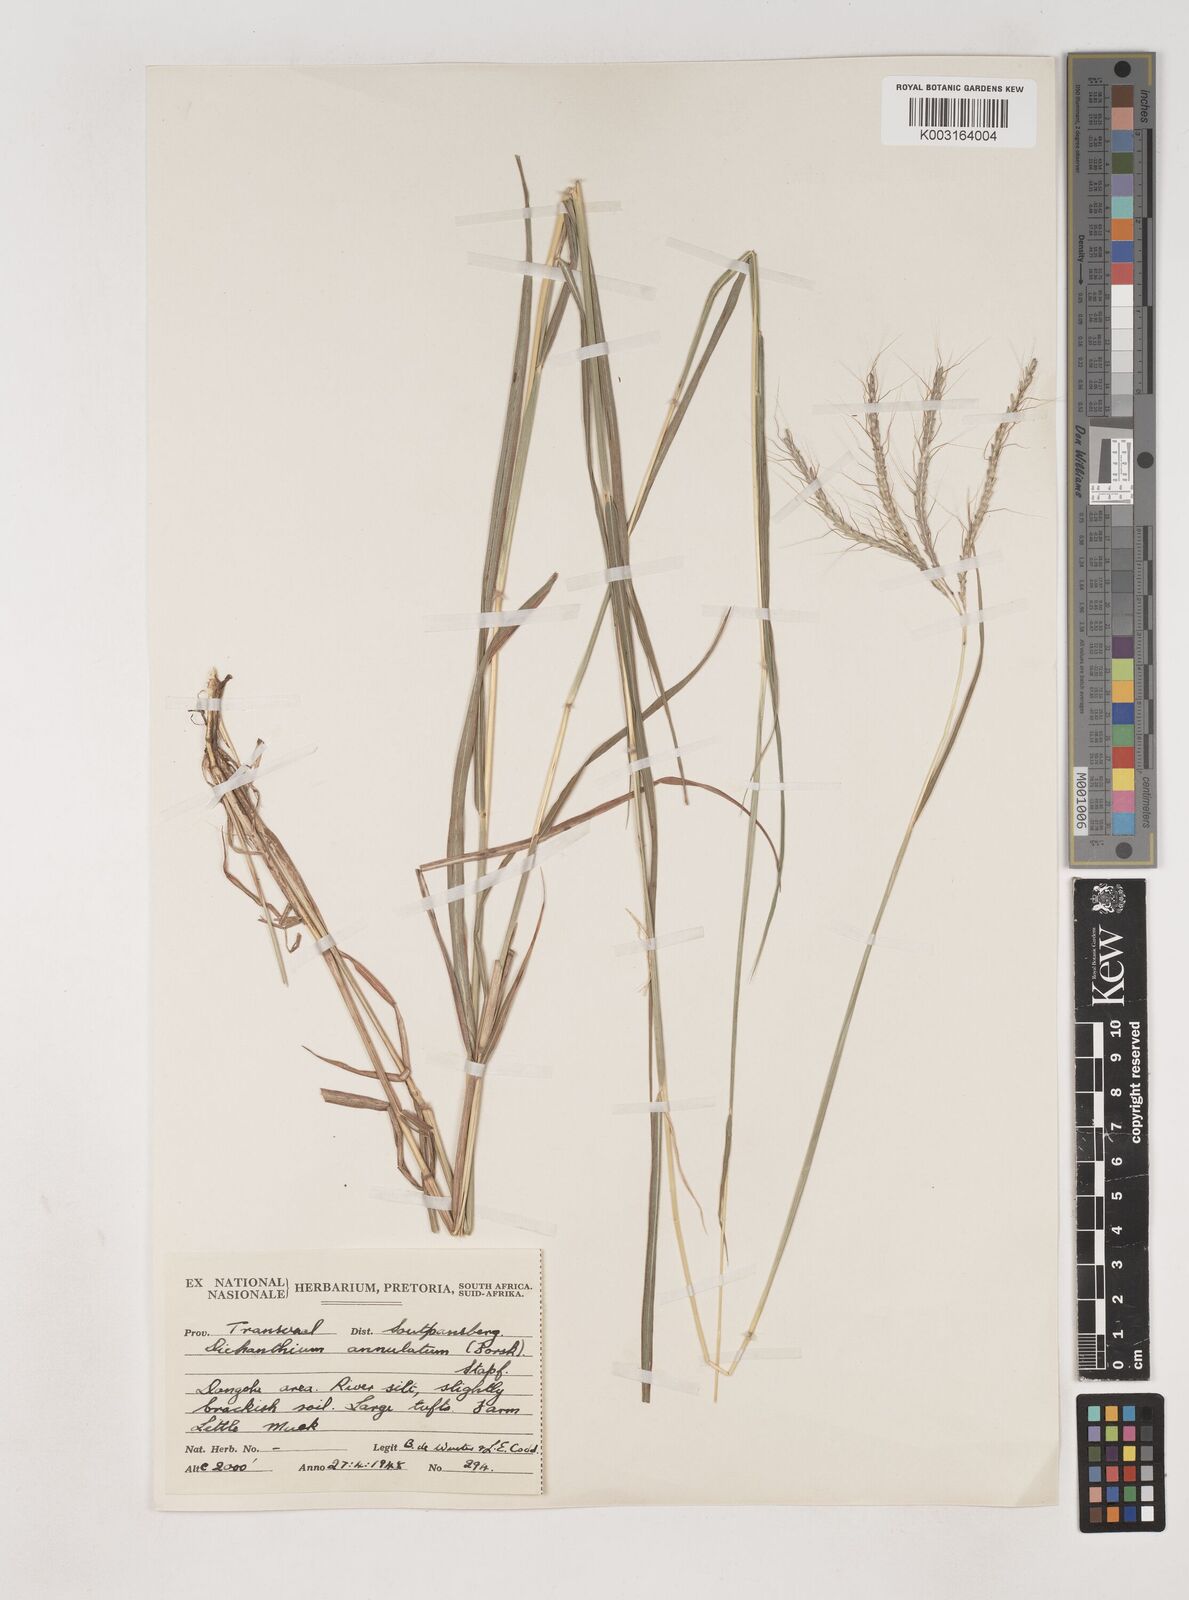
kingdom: Plantae
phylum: Tracheophyta
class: Liliopsida
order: Poales
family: Poaceae
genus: Dichanthium
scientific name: Dichanthium annulatum
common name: Kleberg's bluestem
